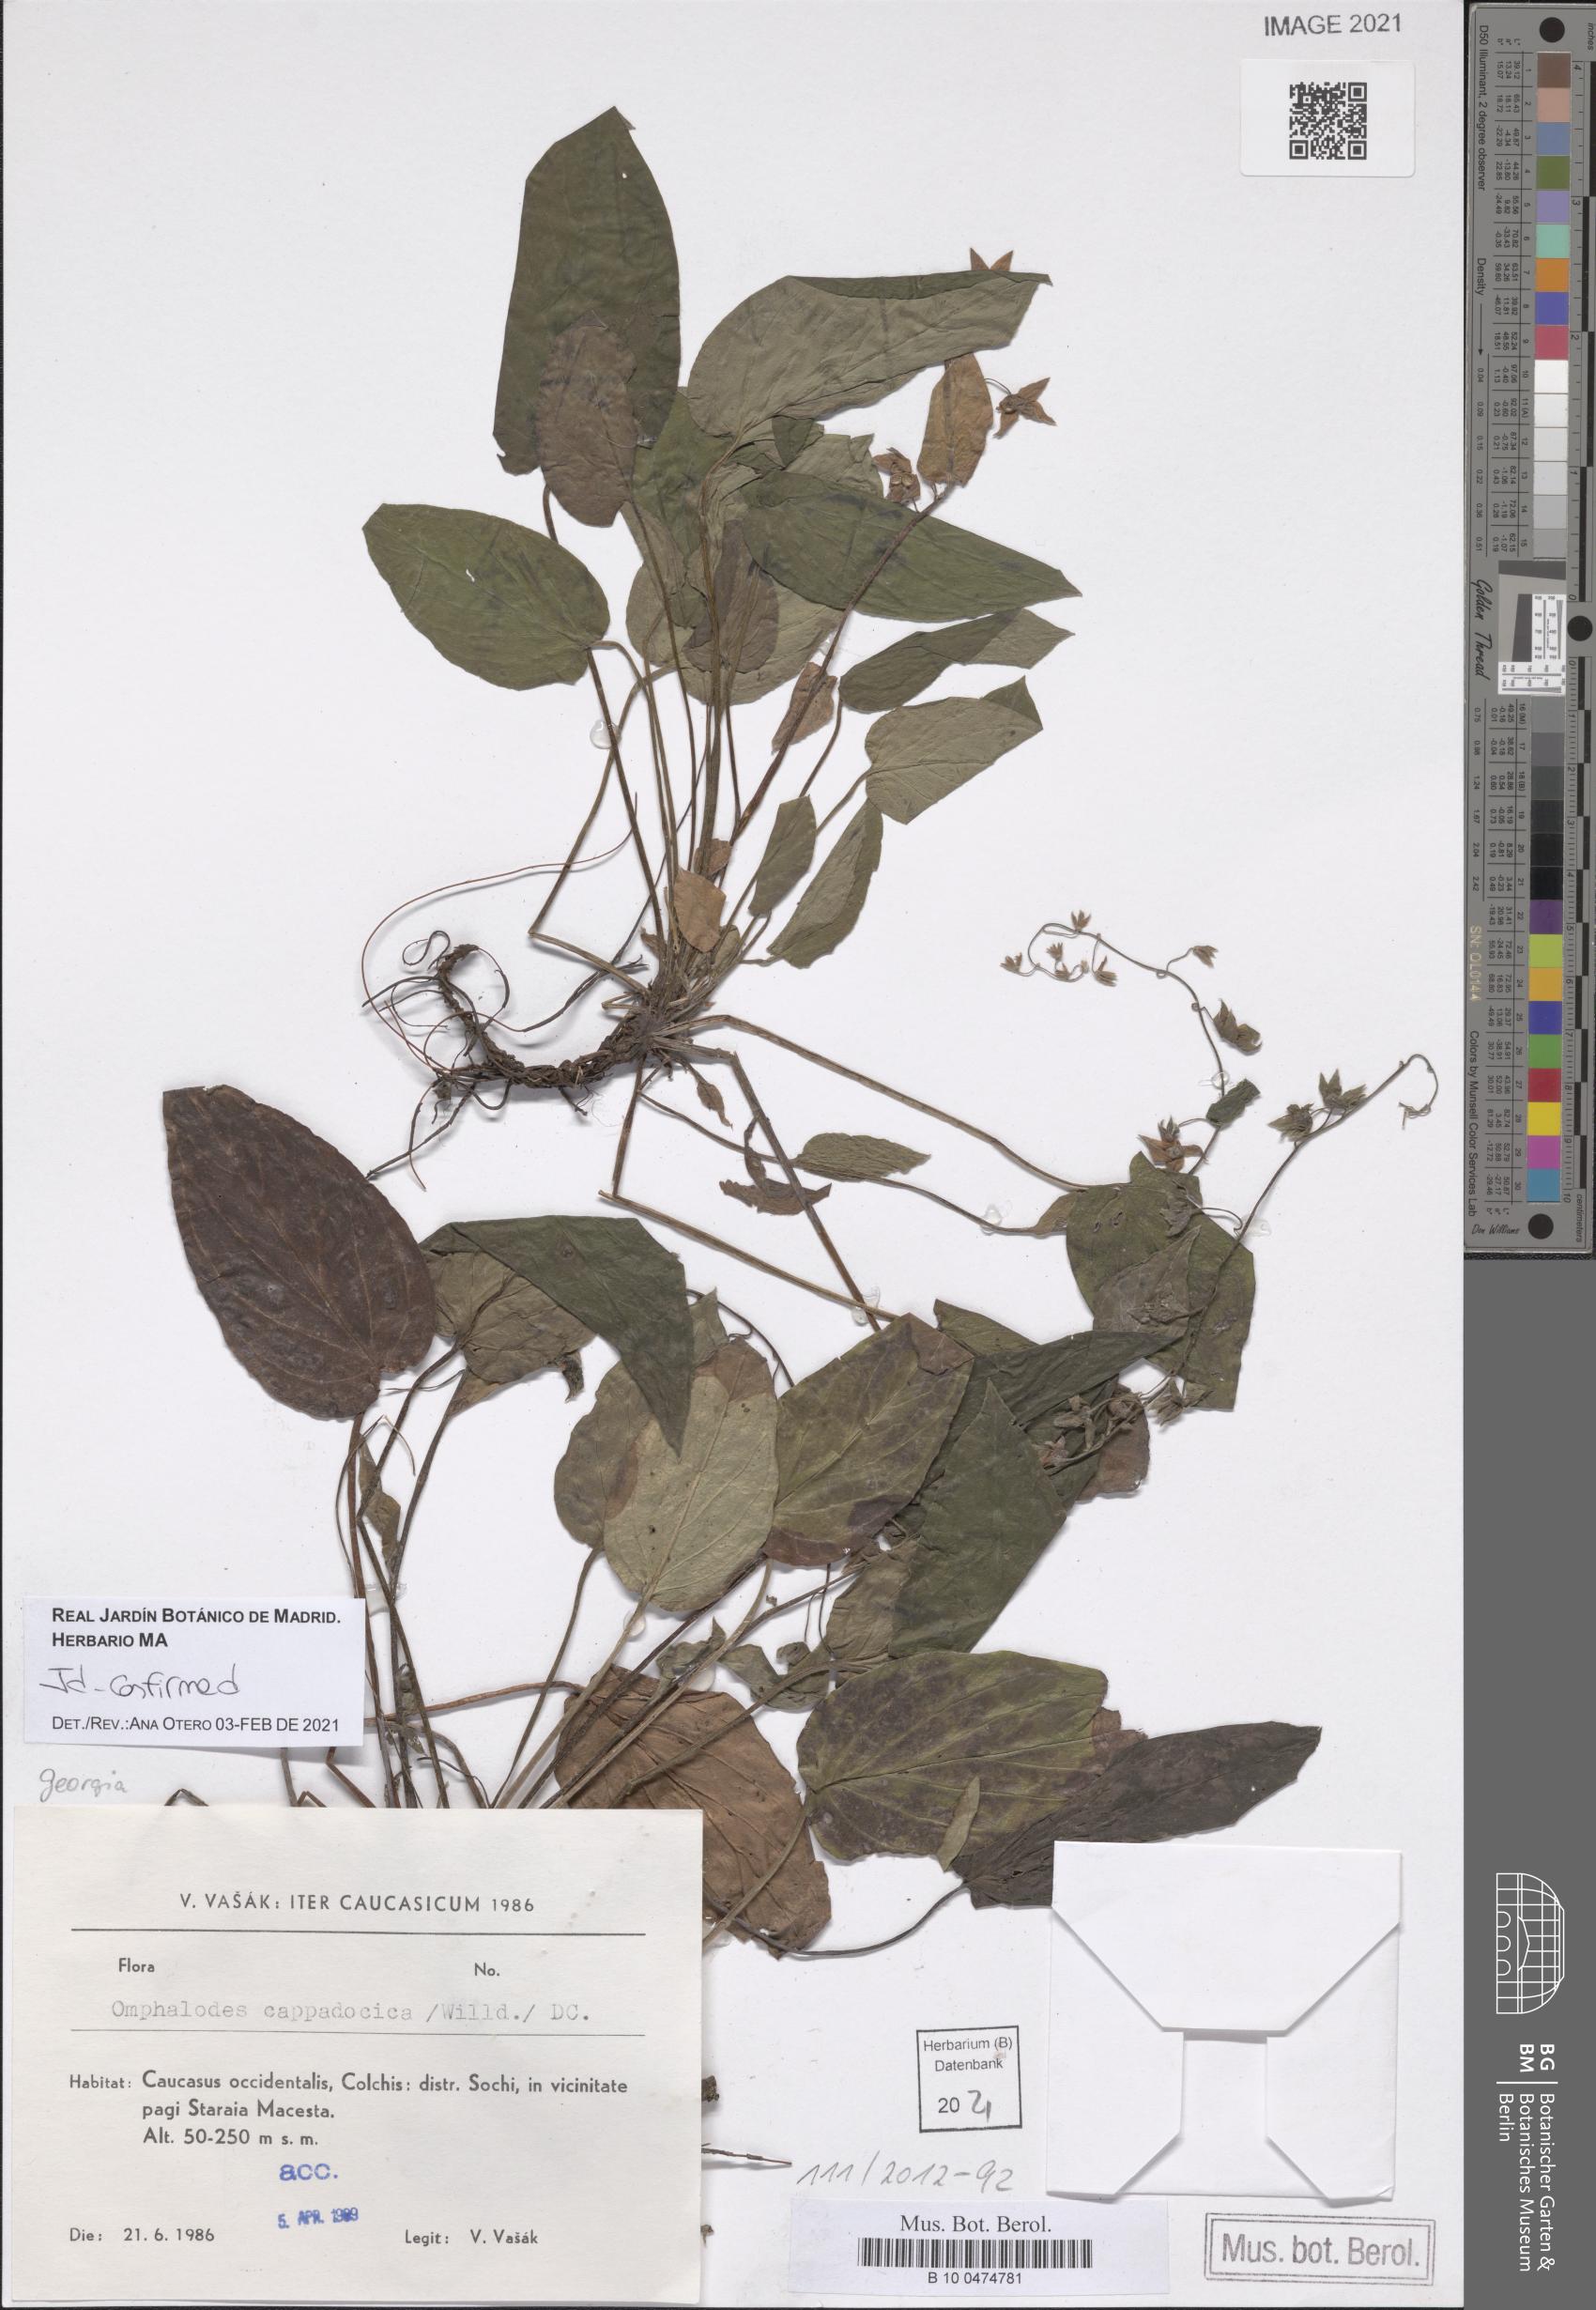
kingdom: Plantae
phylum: Tracheophyta
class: Magnoliopsida
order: Boraginales
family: Boraginaceae
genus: Omphalodes
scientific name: Omphalodes cappadocica
